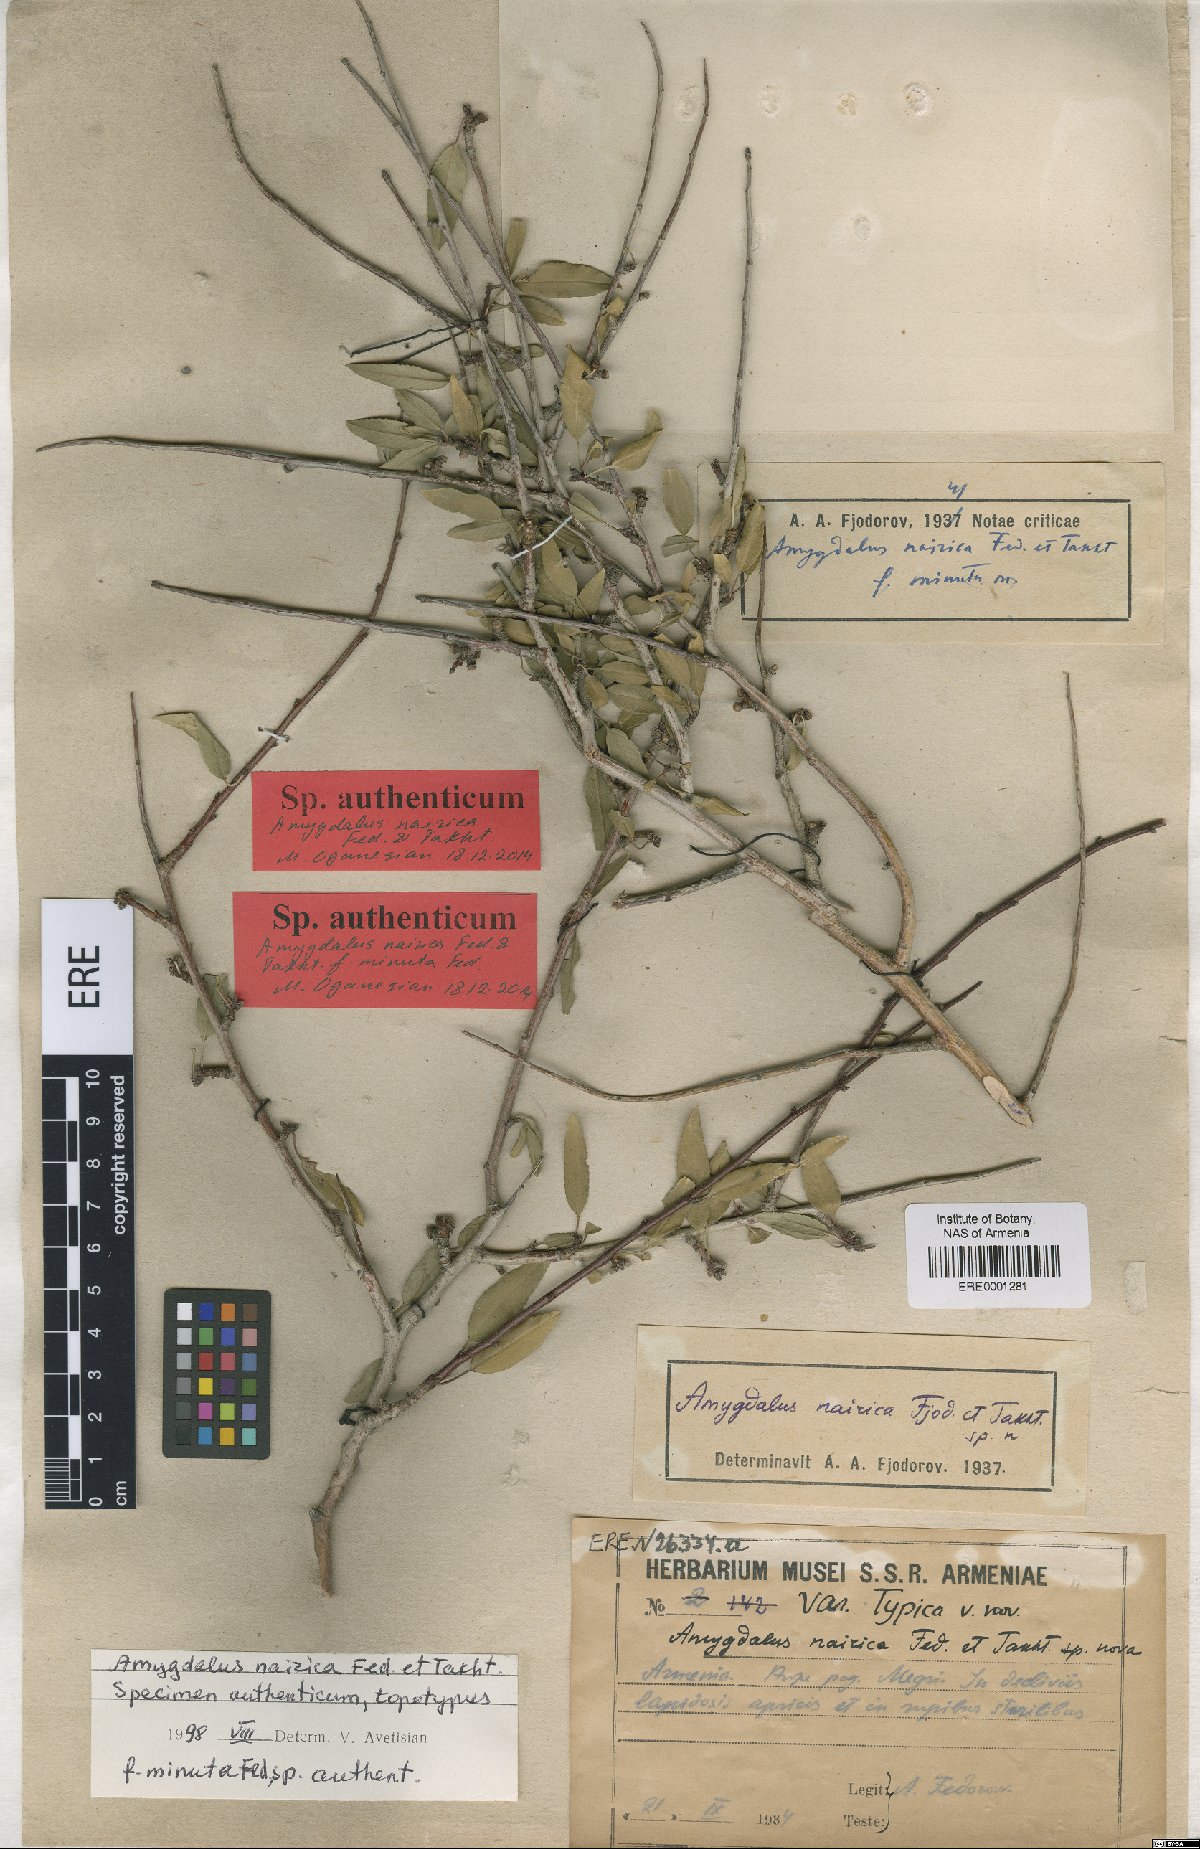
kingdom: Plantae
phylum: Tracheophyta
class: Magnoliopsida
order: Rosales
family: Rosaceae
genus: Prunus
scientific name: Prunus nairica
